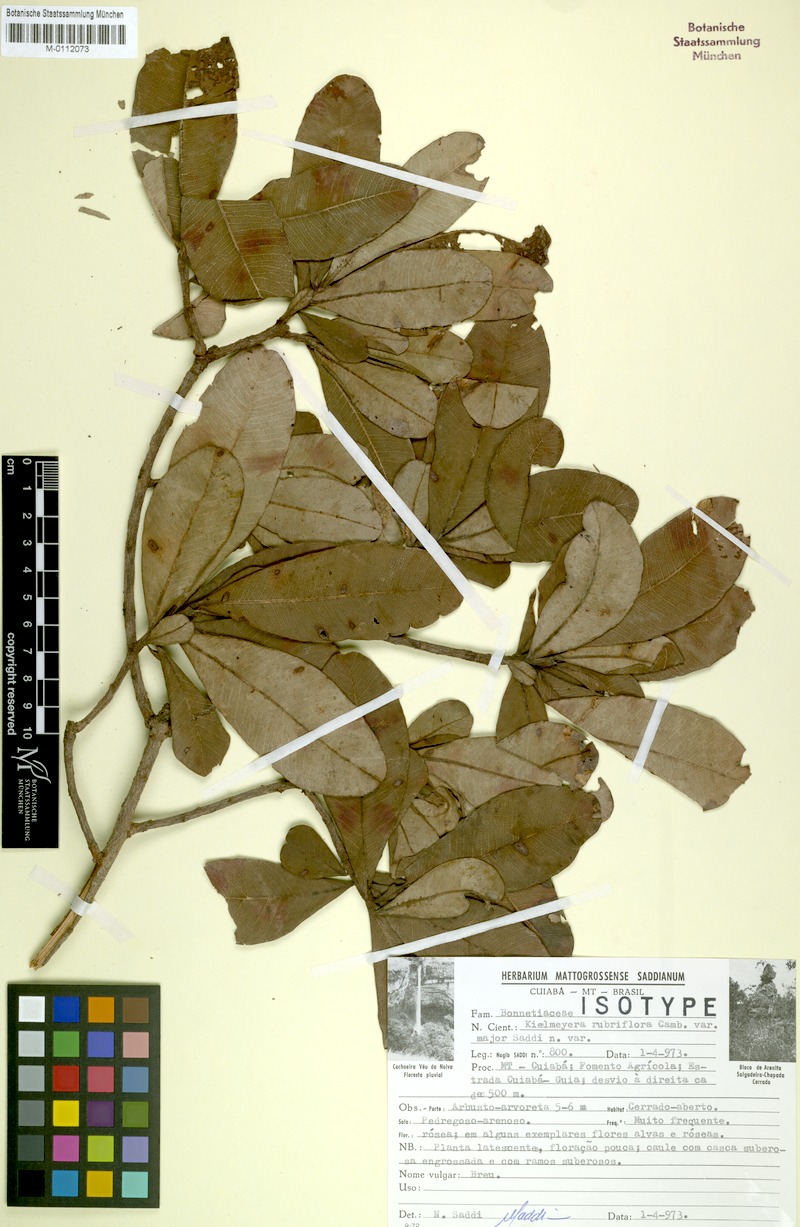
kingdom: Plantae
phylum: Tracheophyta
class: Magnoliopsida
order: Malpighiales
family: Calophyllaceae
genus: Kielmeyera
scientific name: Kielmeyera rubriflora
